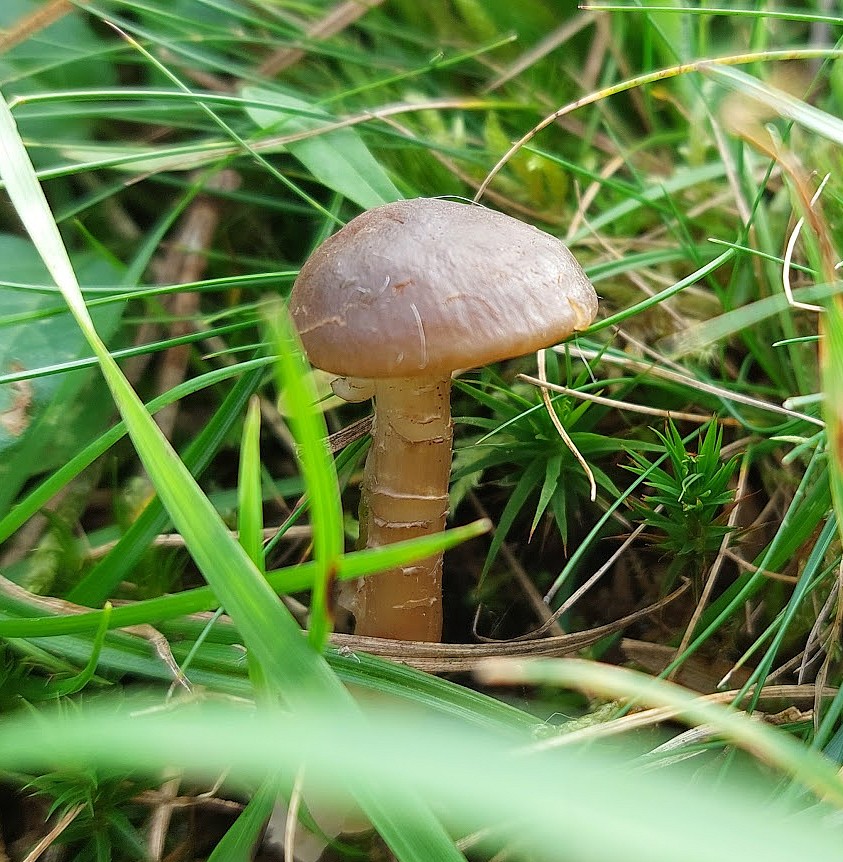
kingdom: Fungi
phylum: Basidiomycota
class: Agaricomycetes
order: Agaricales
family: Hygrophoraceae
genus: Hygrocybe
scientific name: Hygrocybe ingrata
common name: Jensens vokshat
